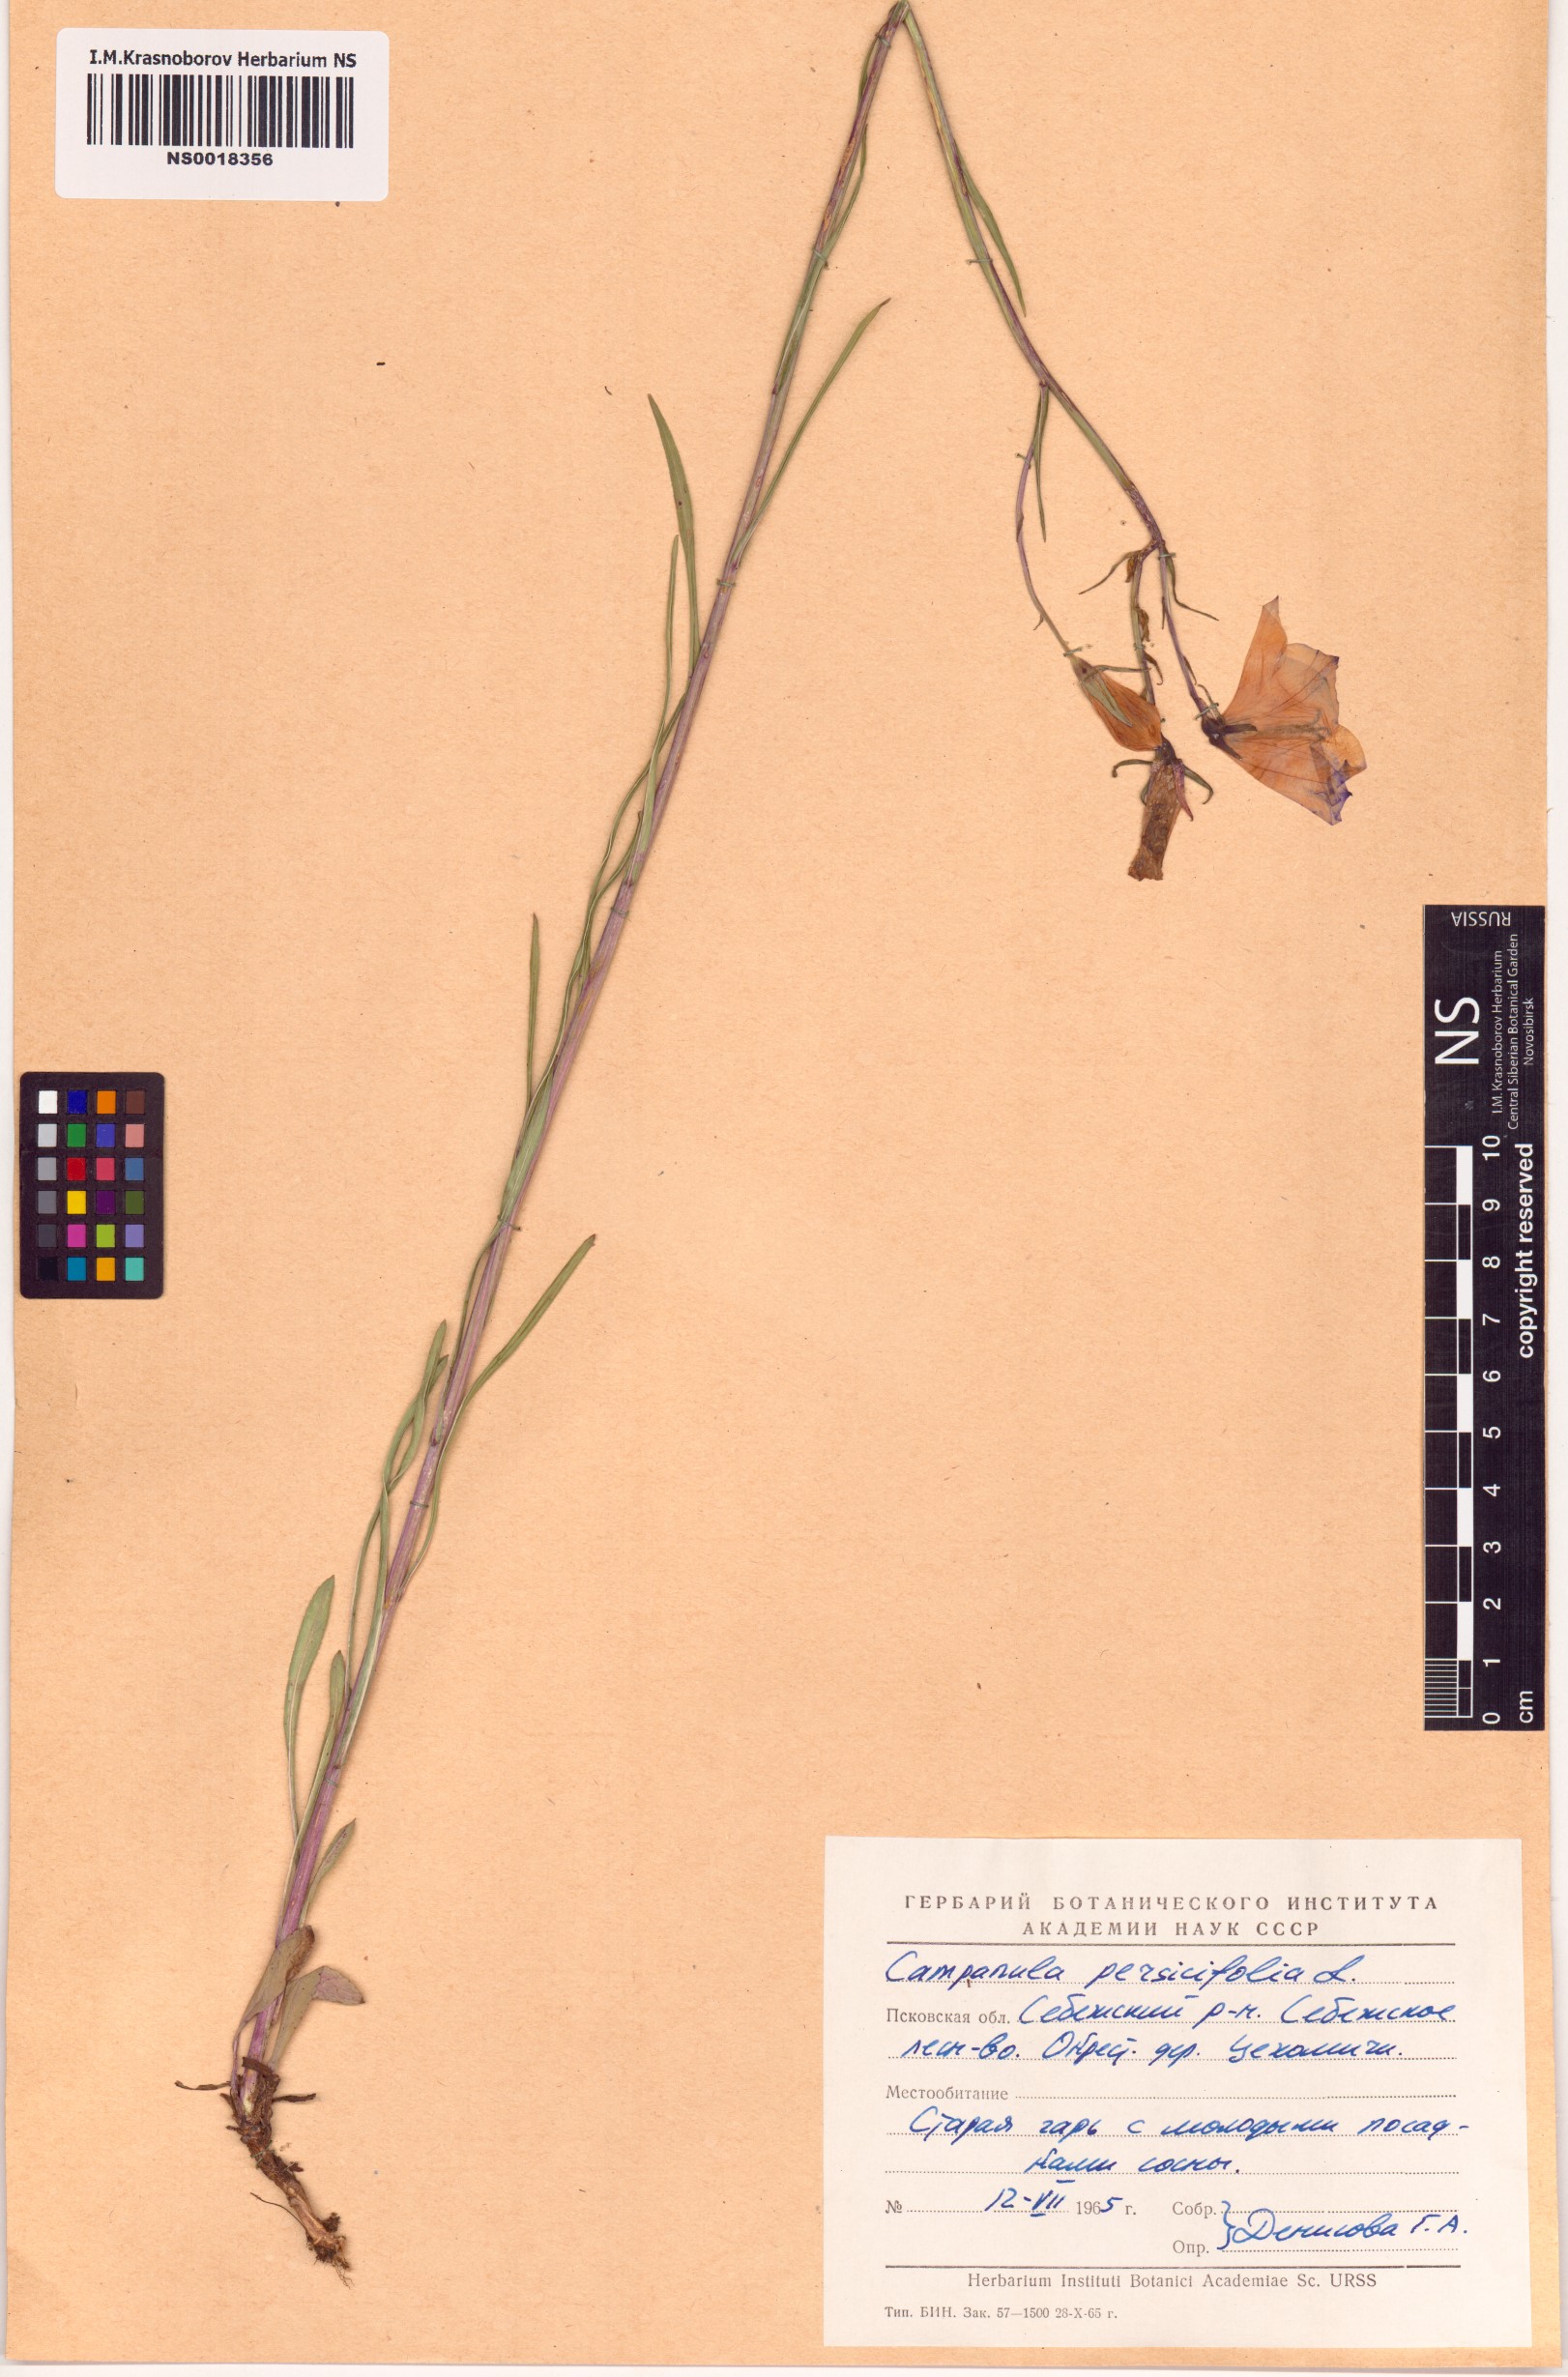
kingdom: Plantae
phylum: Tracheophyta
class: Magnoliopsida
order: Asterales
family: Campanulaceae
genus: Campanula
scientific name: Campanula persicifolia
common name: Peach-leaved bellflower
